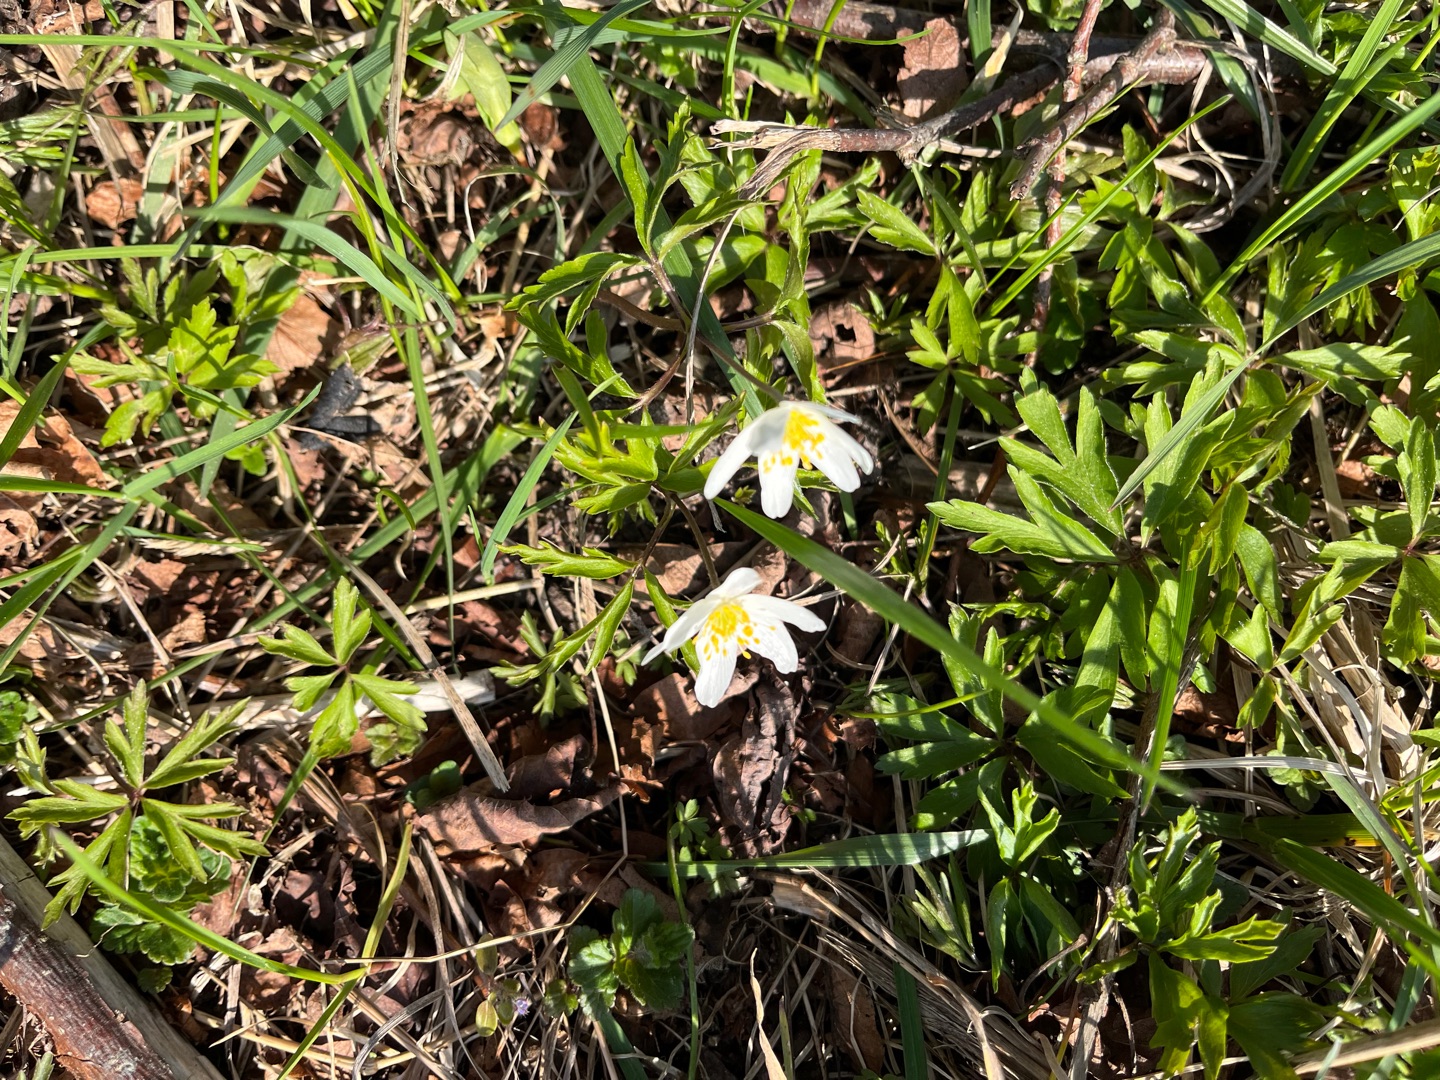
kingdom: Plantae
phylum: Tracheophyta
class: Magnoliopsida
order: Ranunculales
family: Ranunculaceae
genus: Anemone
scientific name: Anemone nemorosa
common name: Hvid anemone
